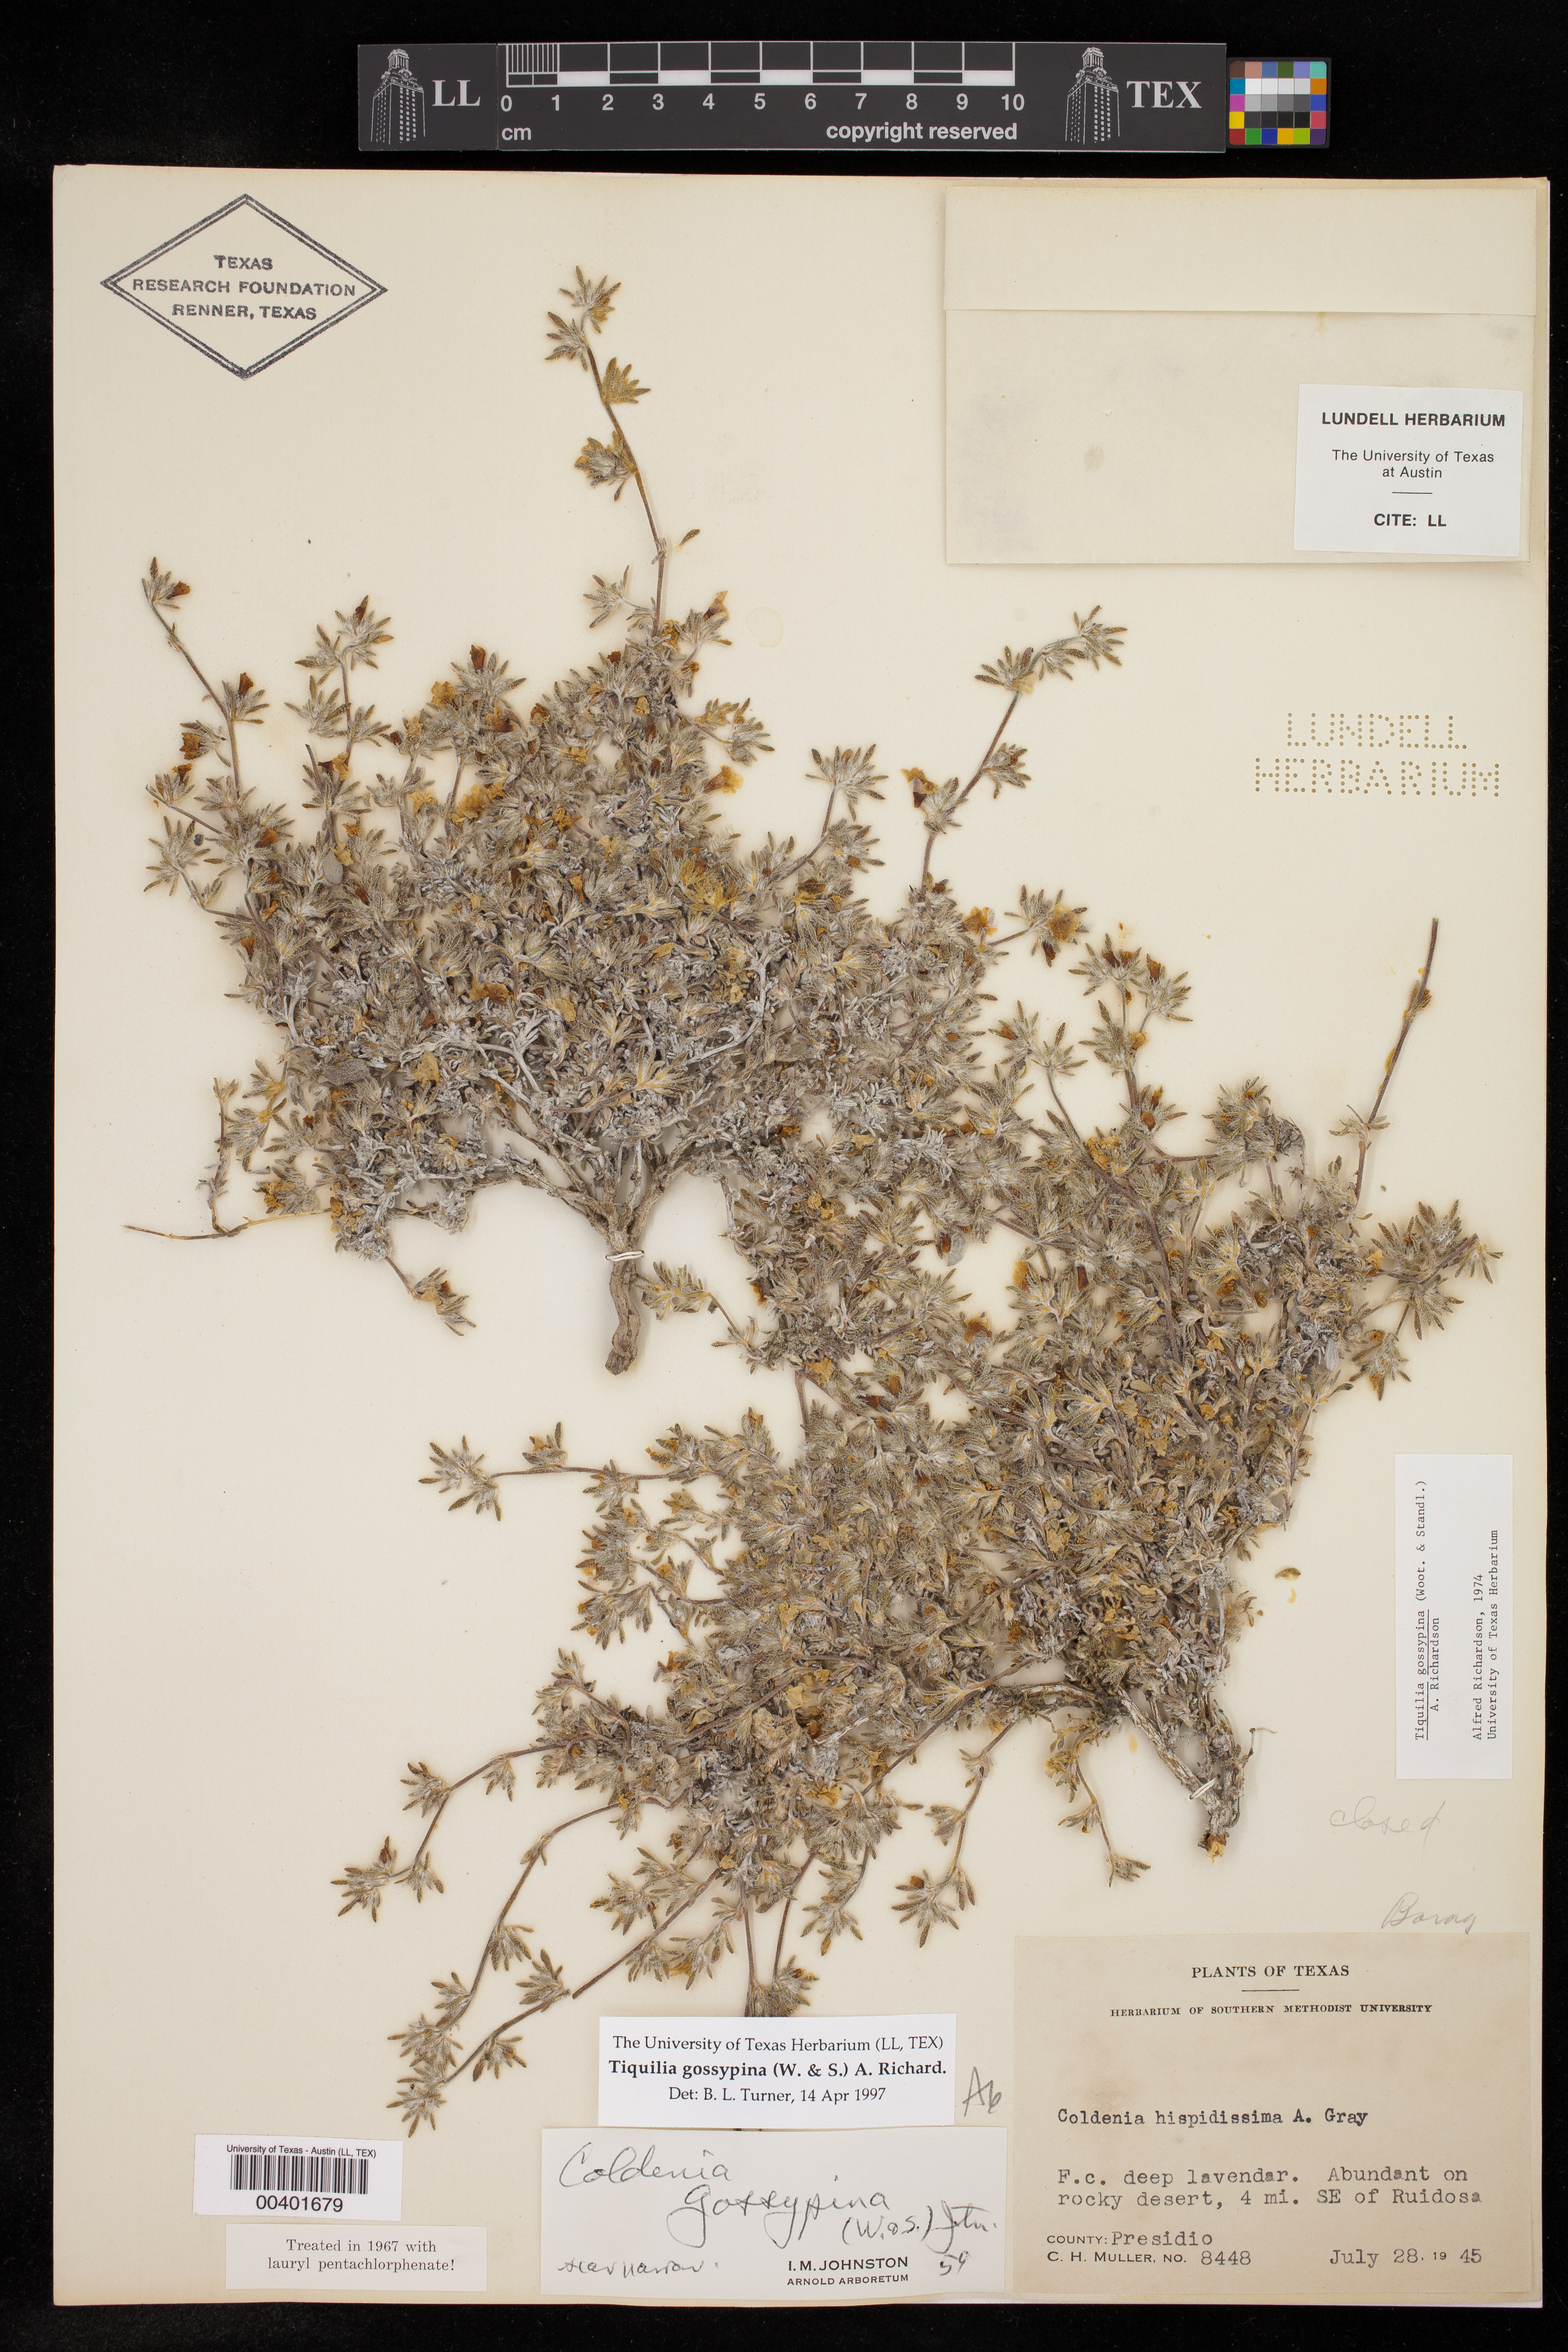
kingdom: Plantae
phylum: Tracheophyta
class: Magnoliopsida
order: Boraginales
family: Ehretiaceae
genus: Tiquilia
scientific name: Tiquilia gossypina
